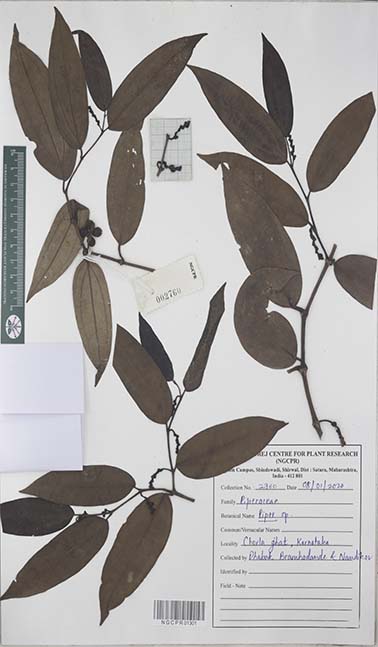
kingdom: Plantae
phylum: Tracheophyta
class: Magnoliopsida
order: Piperales
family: Piperaceae
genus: Piper
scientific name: Piper
